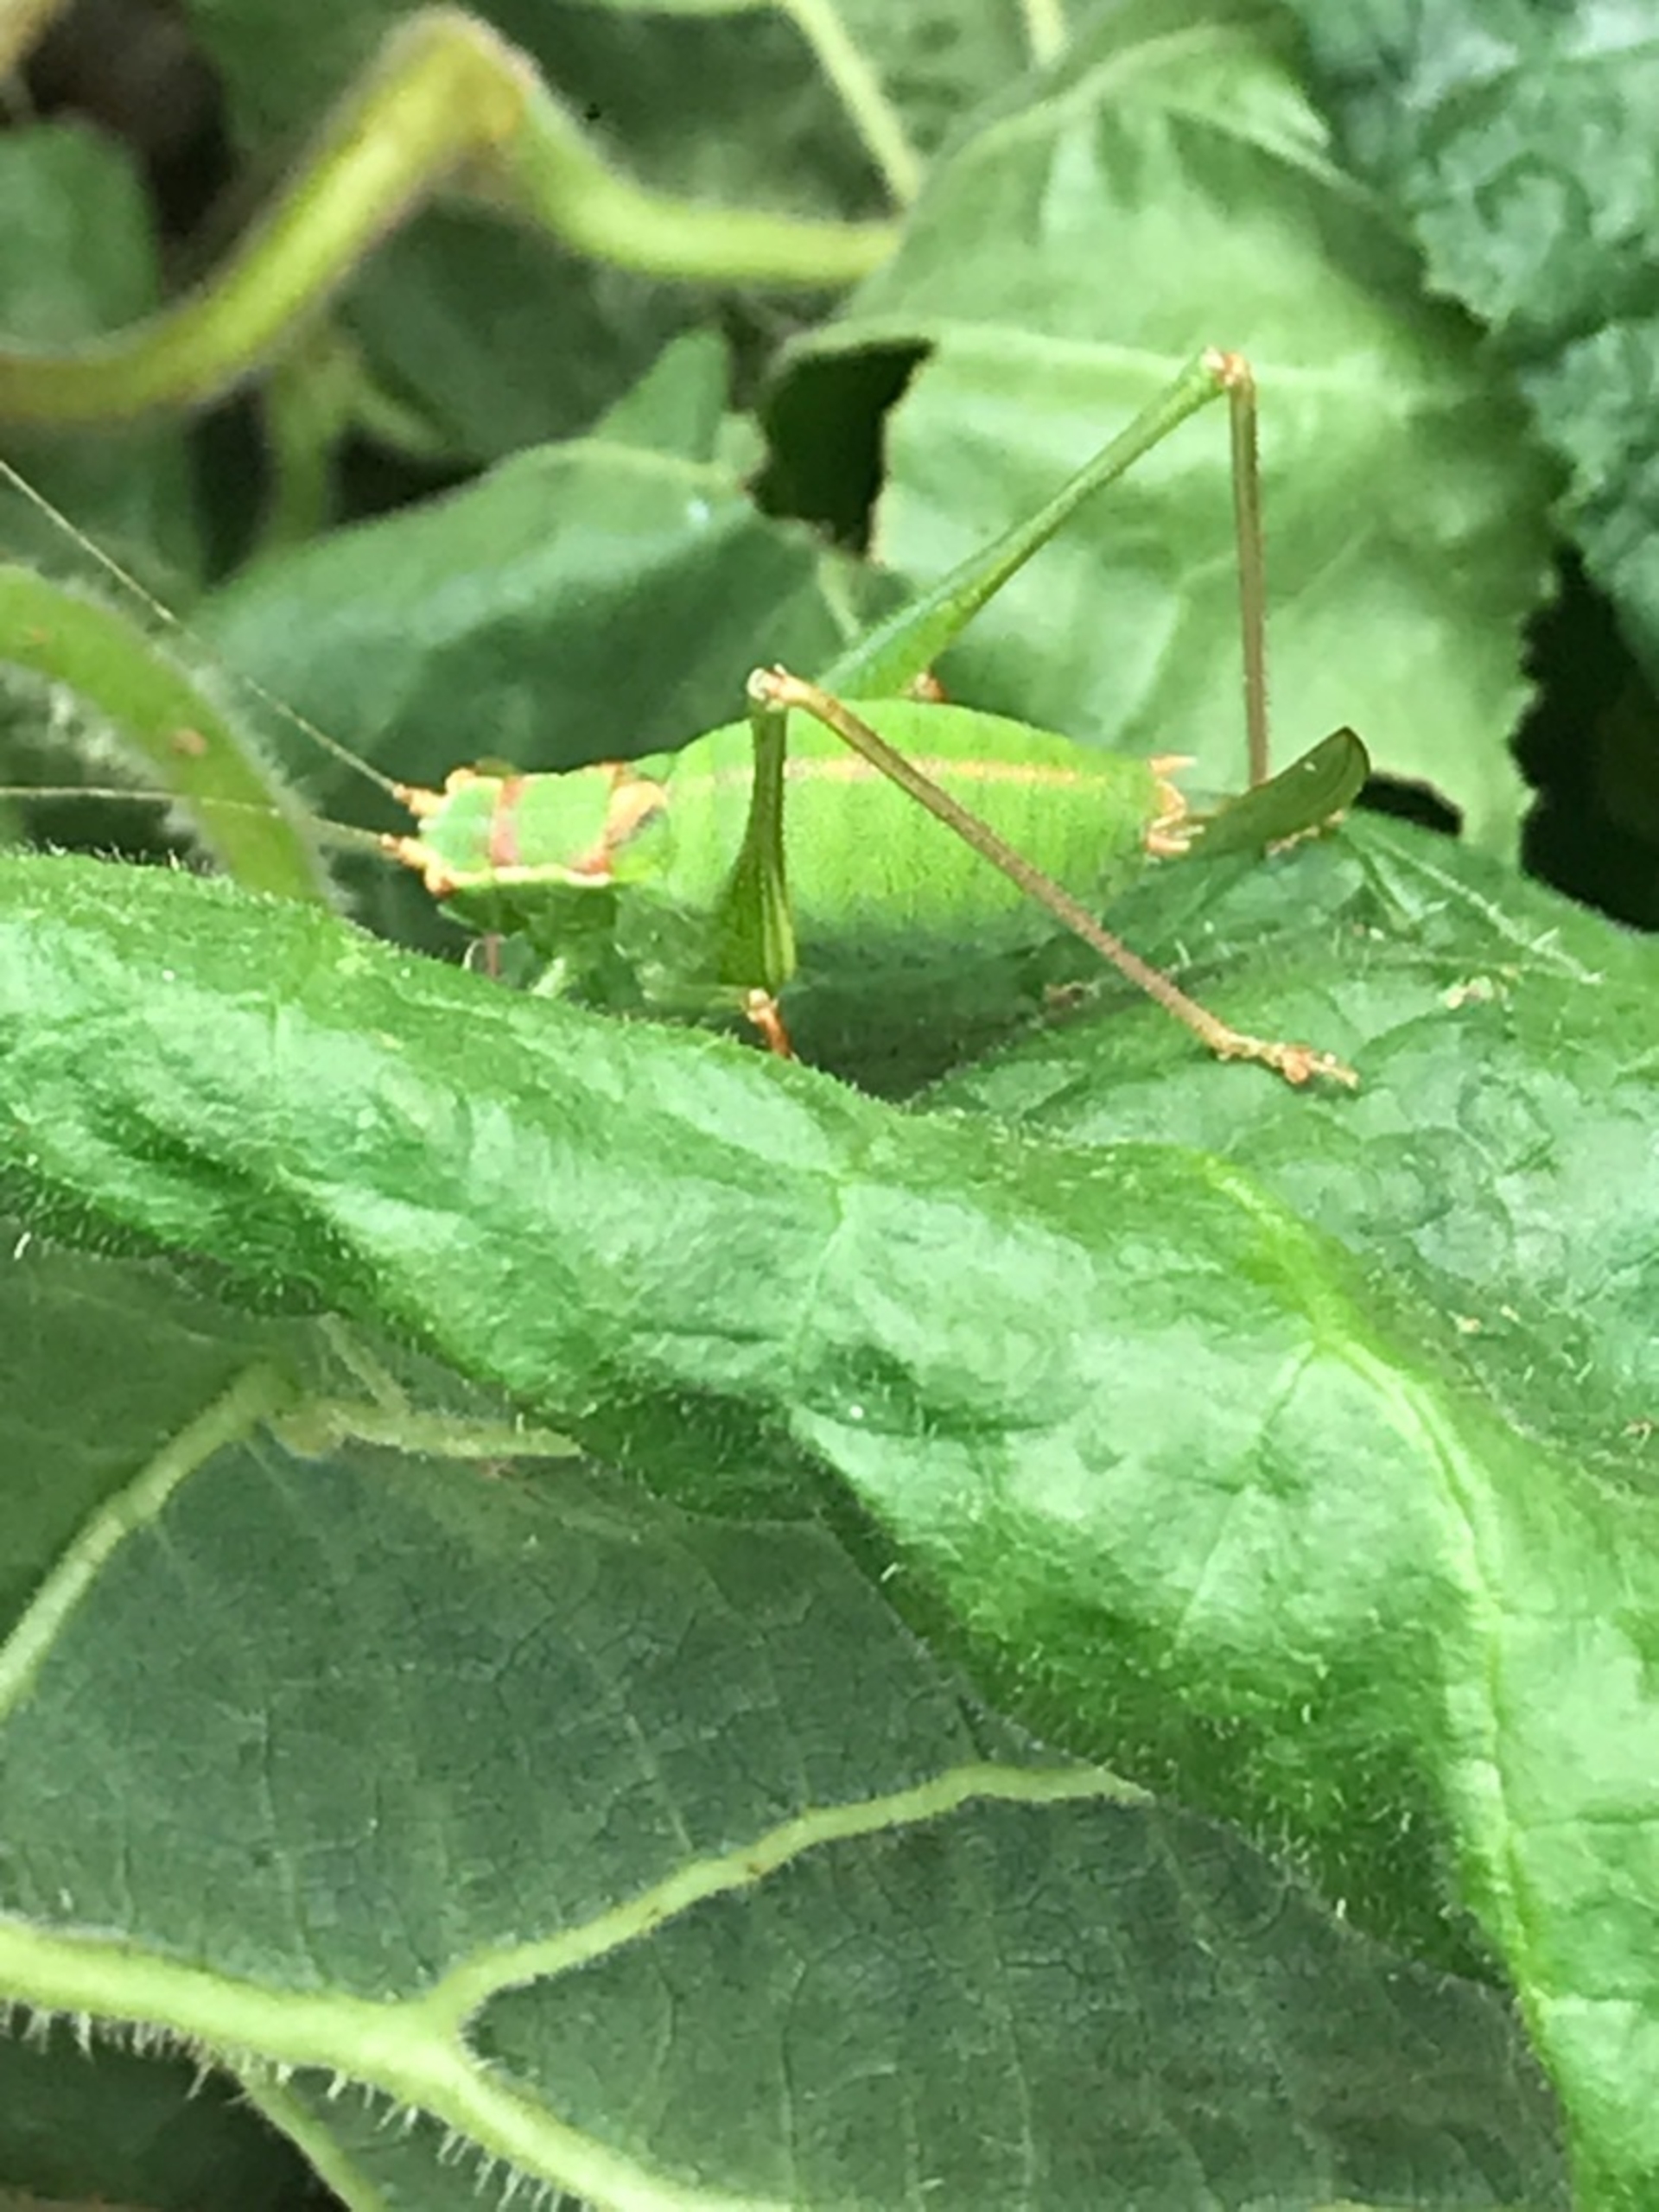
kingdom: Animalia
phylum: Arthropoda
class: Insecta
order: Orthoptera
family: Tettigoniidae
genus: Leptophyes
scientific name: Leptophyes punctatissima
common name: Krumknivgræshoppe
